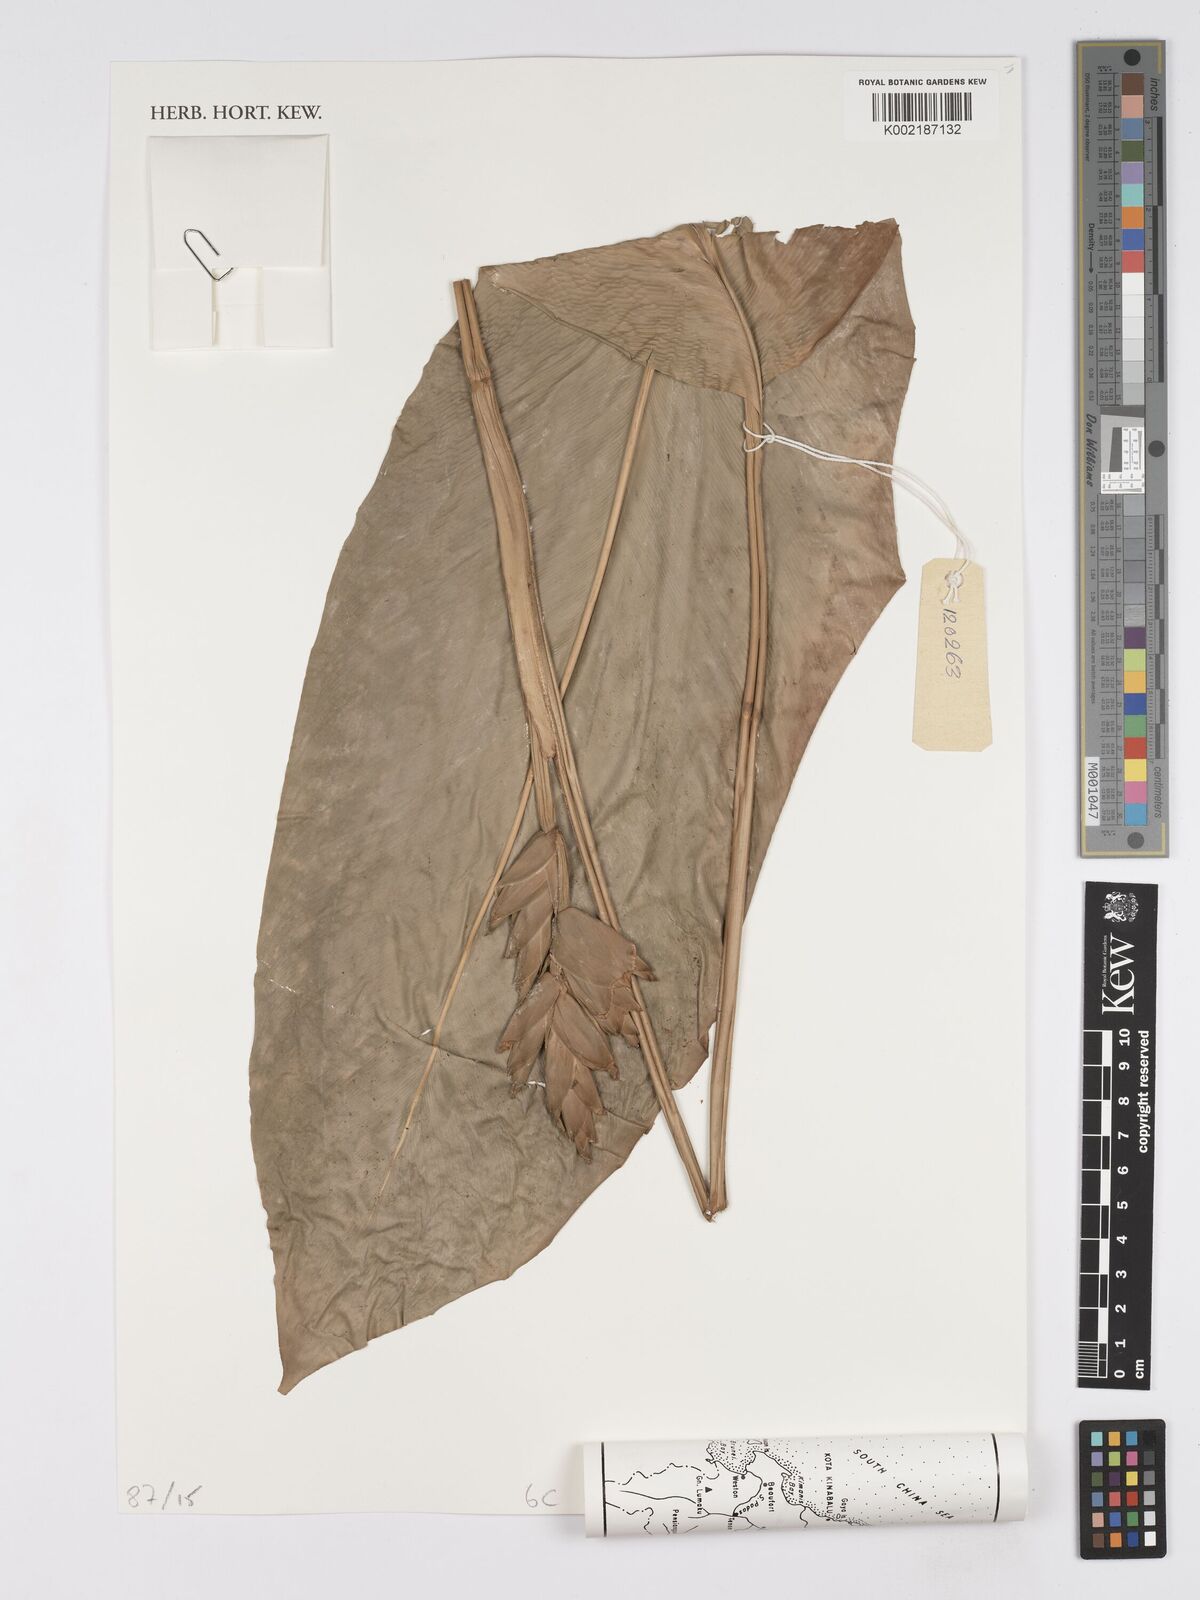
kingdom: Plantae
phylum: Tracheophyta
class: Liliopsida
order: Zingiberales
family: Marantaceae
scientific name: Marantaceae
